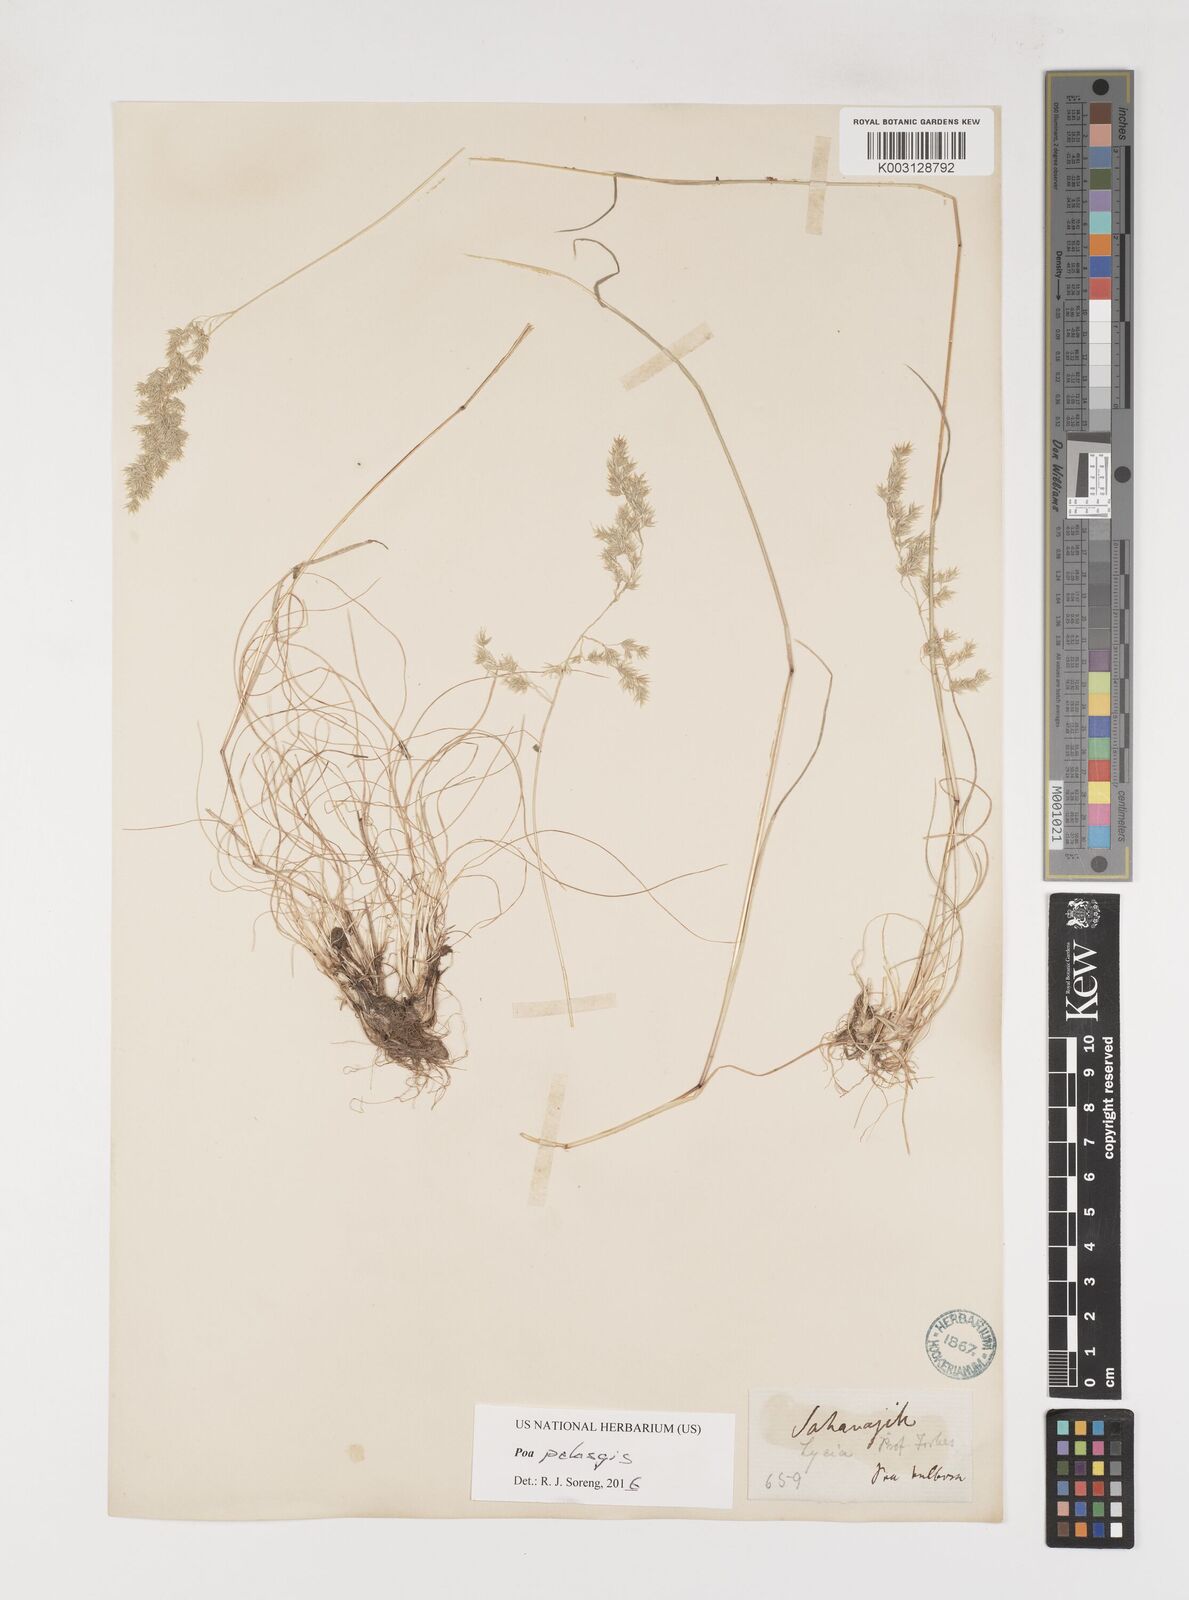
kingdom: Plantae
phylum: Tracheophyta
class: Liliopsida
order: Poales
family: Poaceae
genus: Poa
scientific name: Poa iconia
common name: Konya bluegrass
